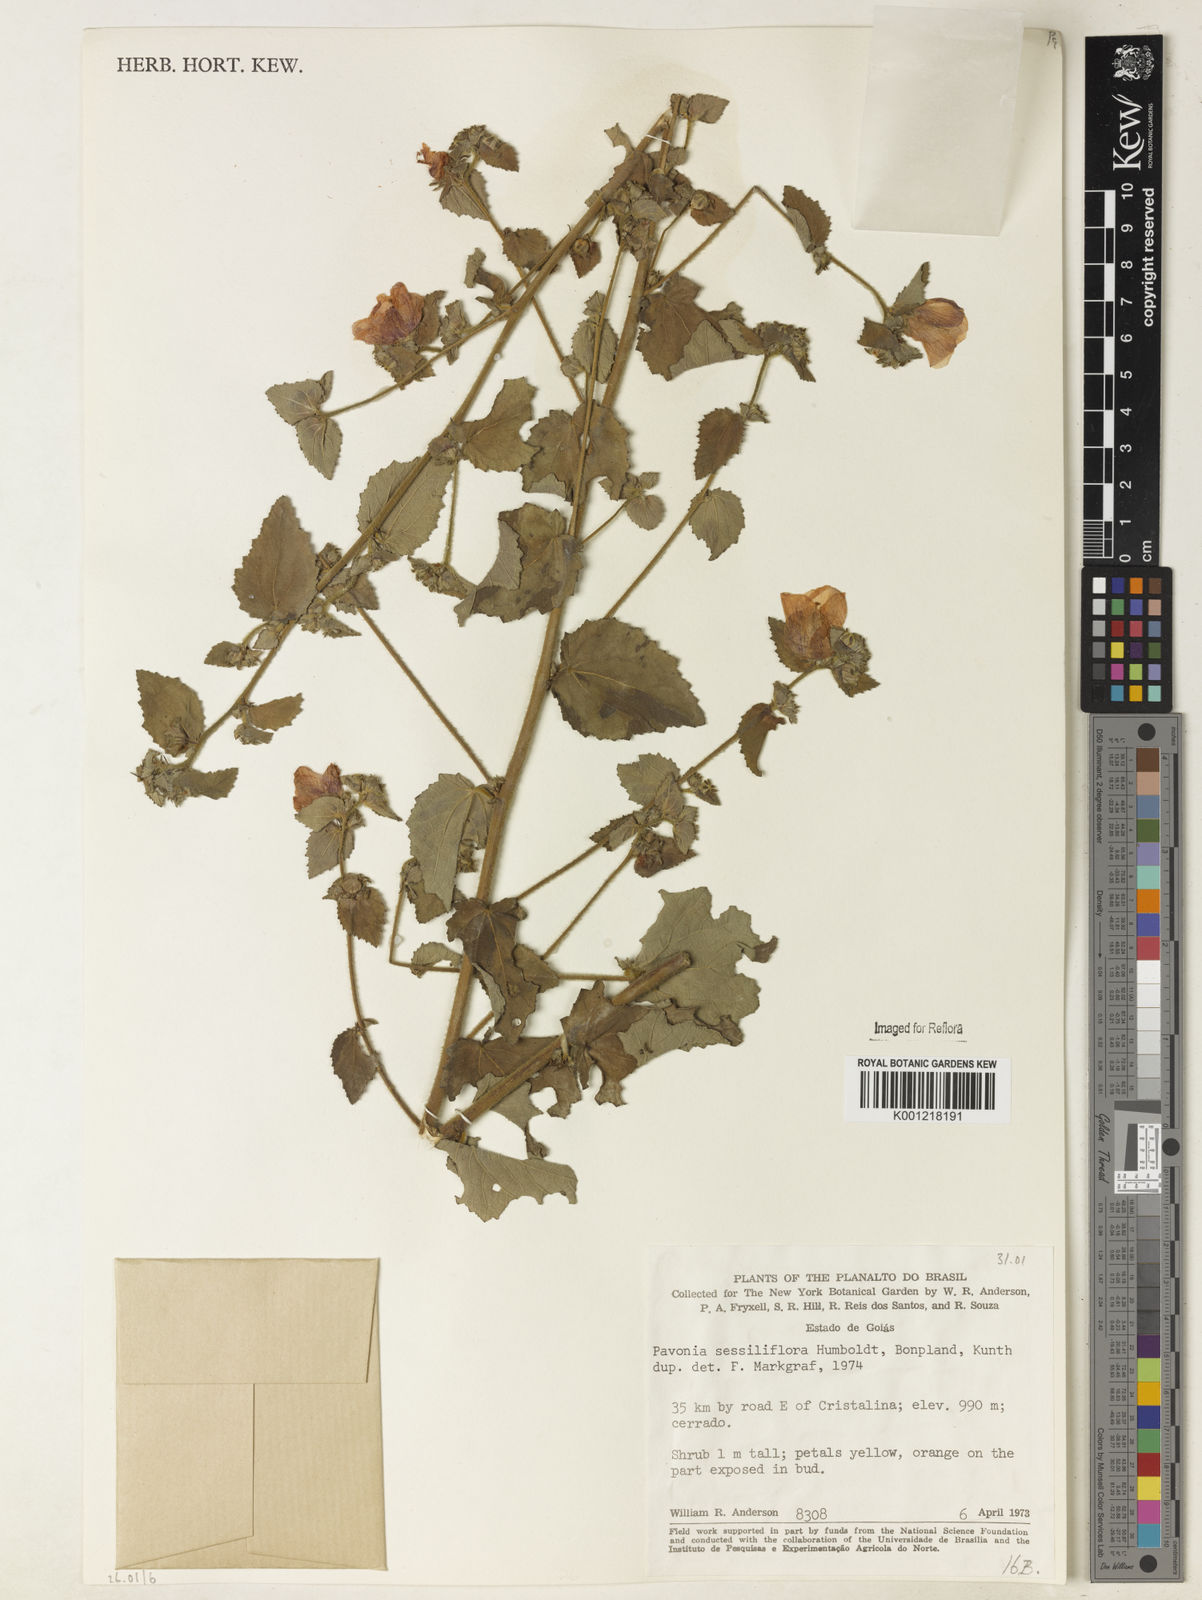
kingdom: Plantae
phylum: Tracheophyta
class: Magnoliopsida
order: Malvales
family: Malvaceae
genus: Peltaea
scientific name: Peltaea sessiliflora
